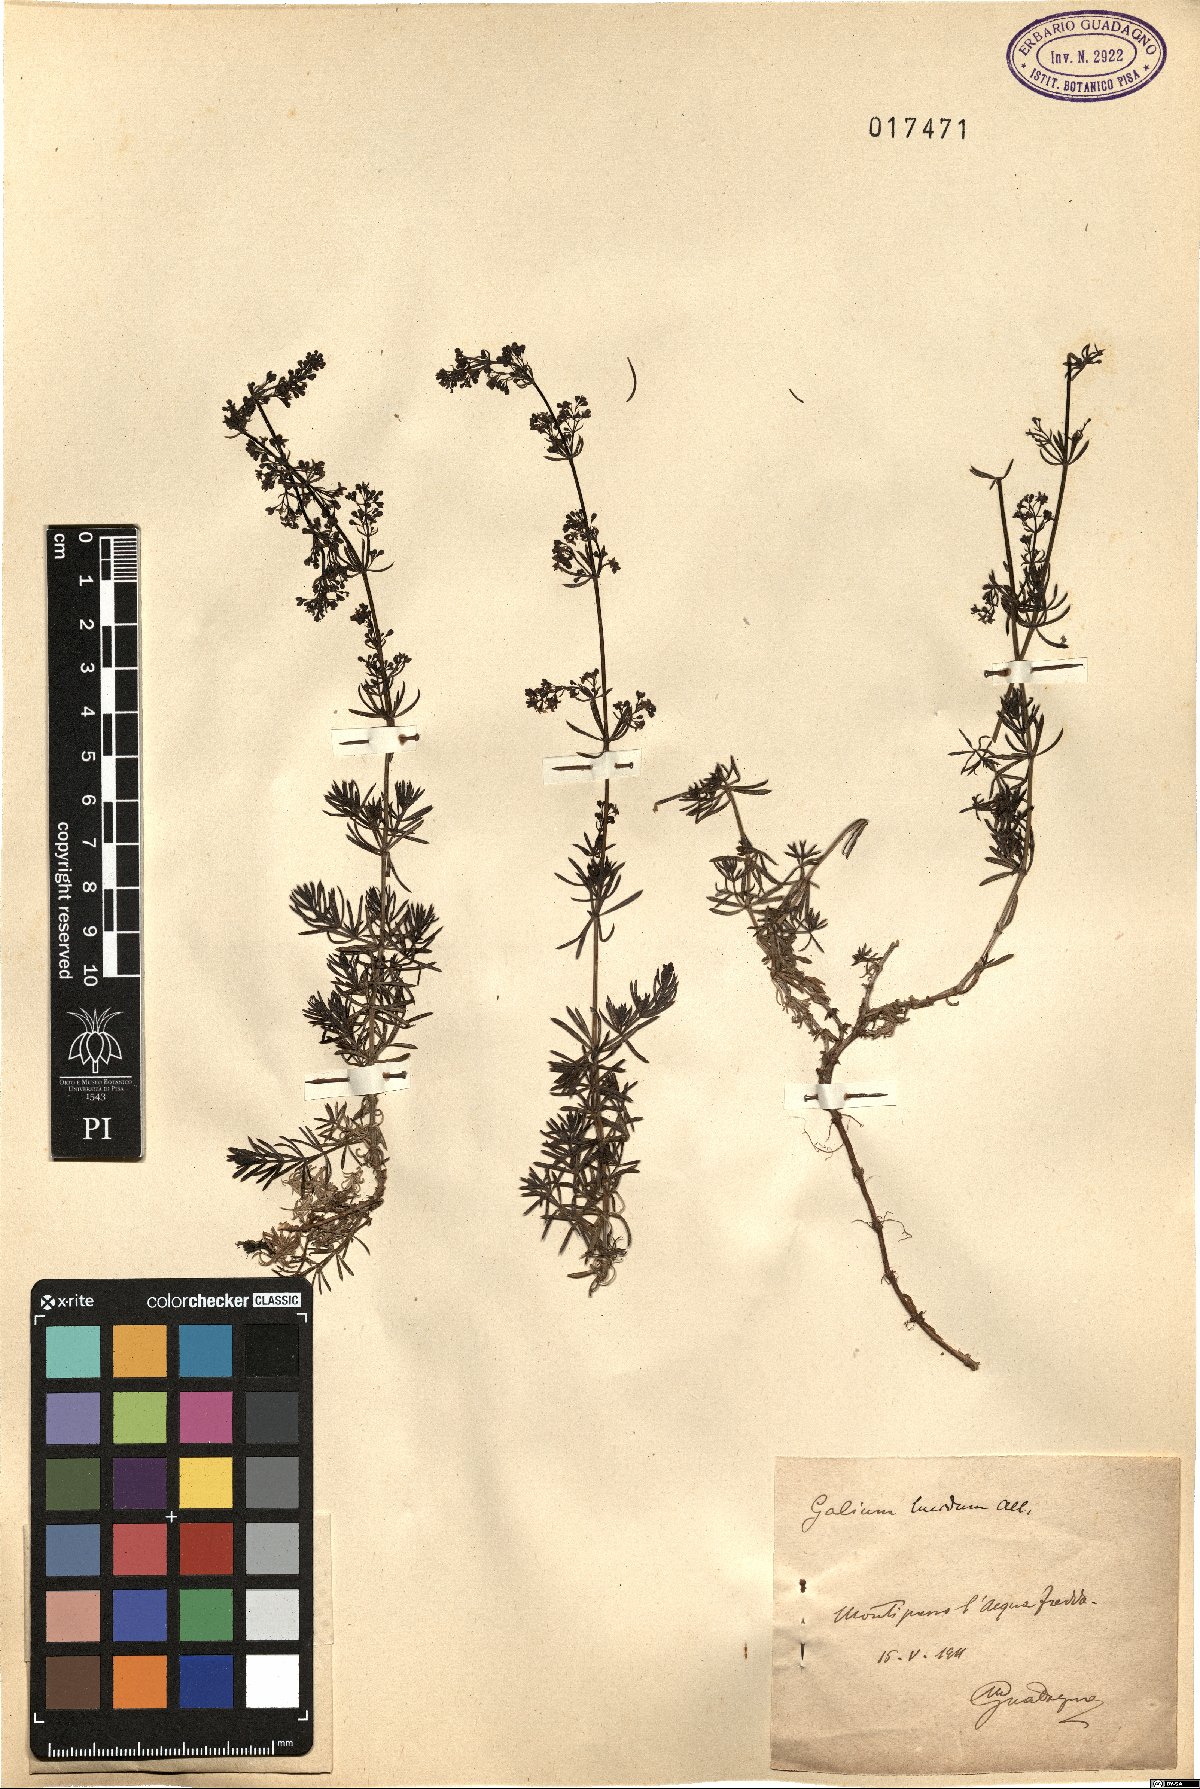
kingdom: Plantae
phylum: Tracheophyta
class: Magnoliopsida
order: Gentianales
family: Rubiaceae
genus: Galium
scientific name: Galium lucidum
